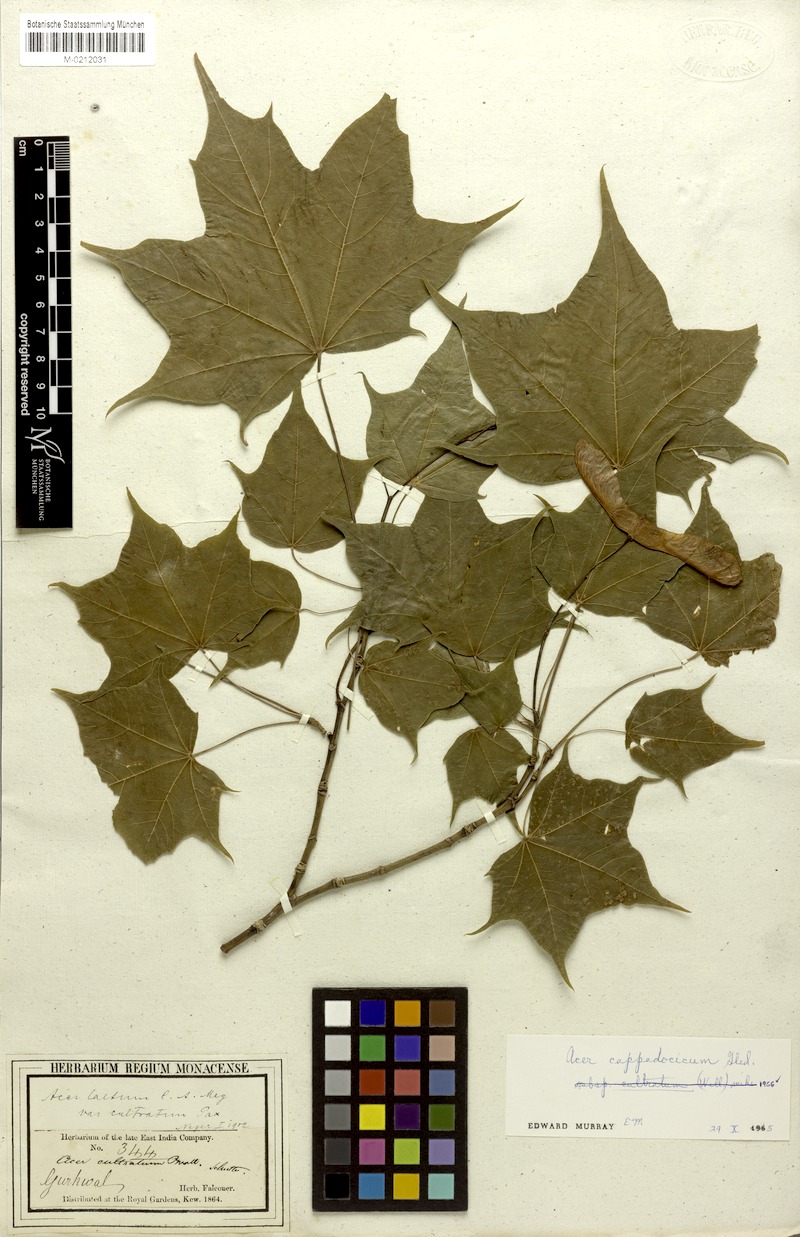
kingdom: Plantae
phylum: Tracheophyta
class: Magnoliopsida
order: Sapindales
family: Sapindaceae
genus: Acer
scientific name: Acer cappadocicum
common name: Cappadocian maple
